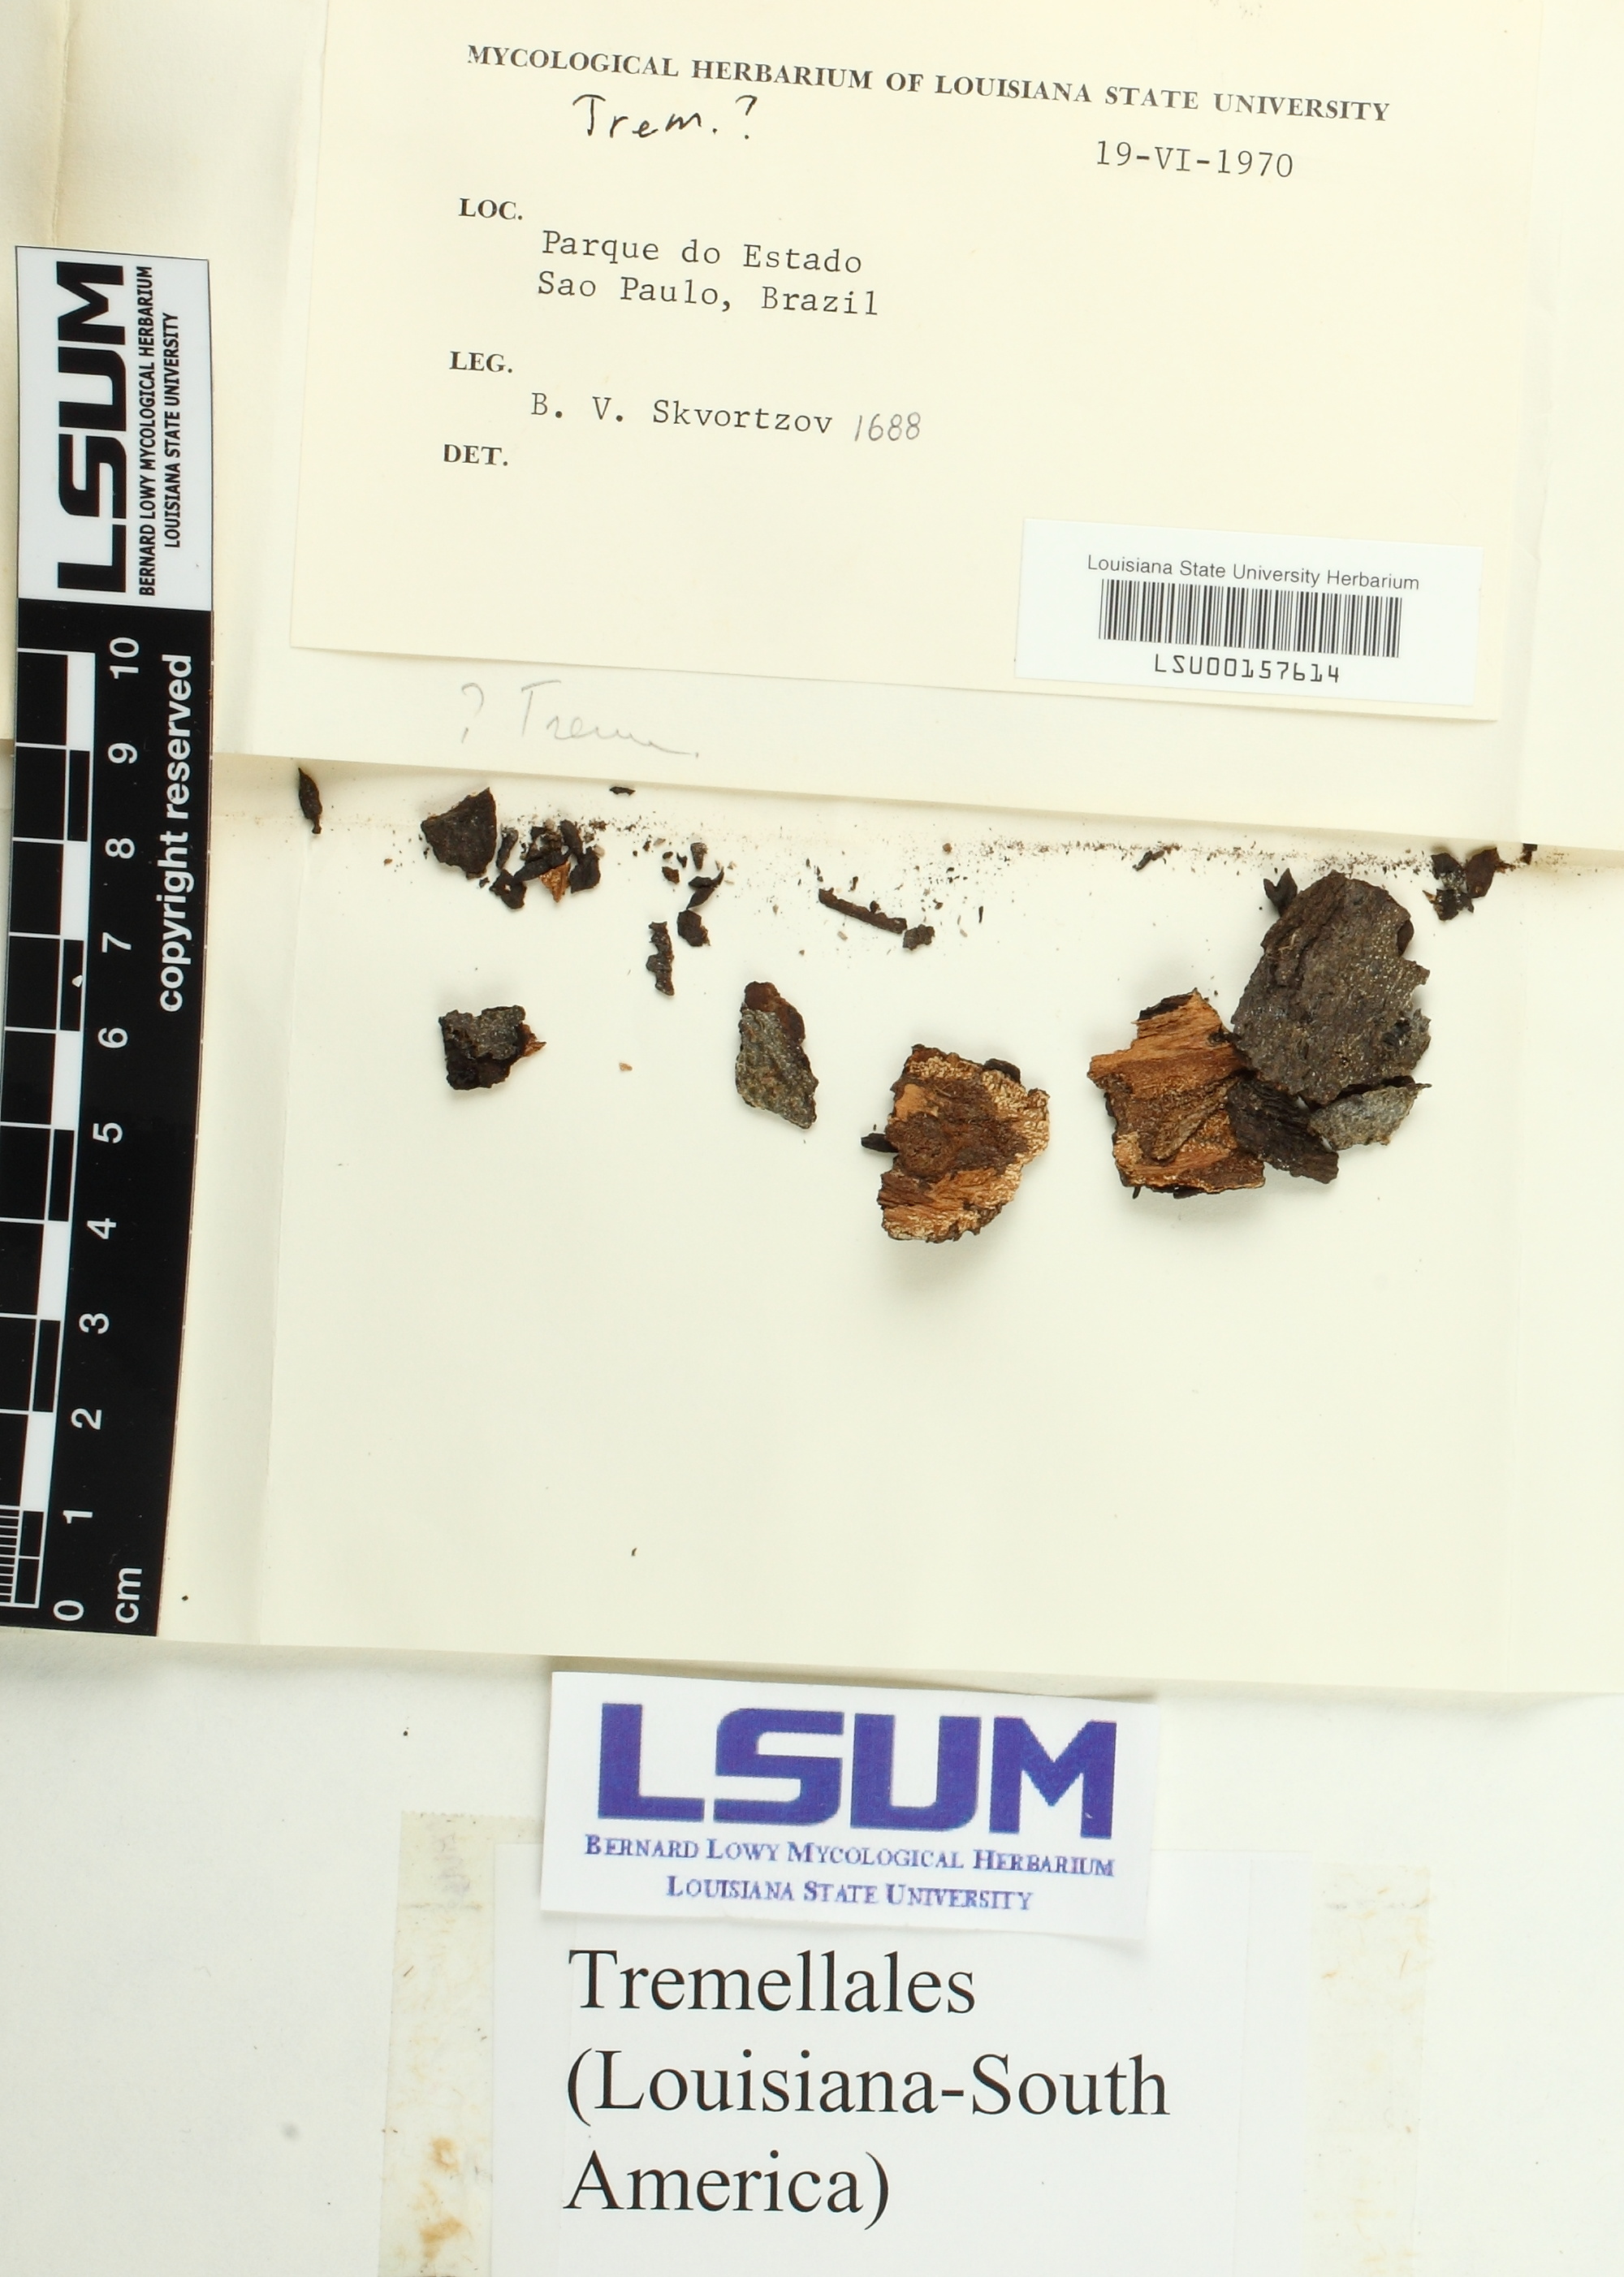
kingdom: Fungi
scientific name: Fungi
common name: Fungi
